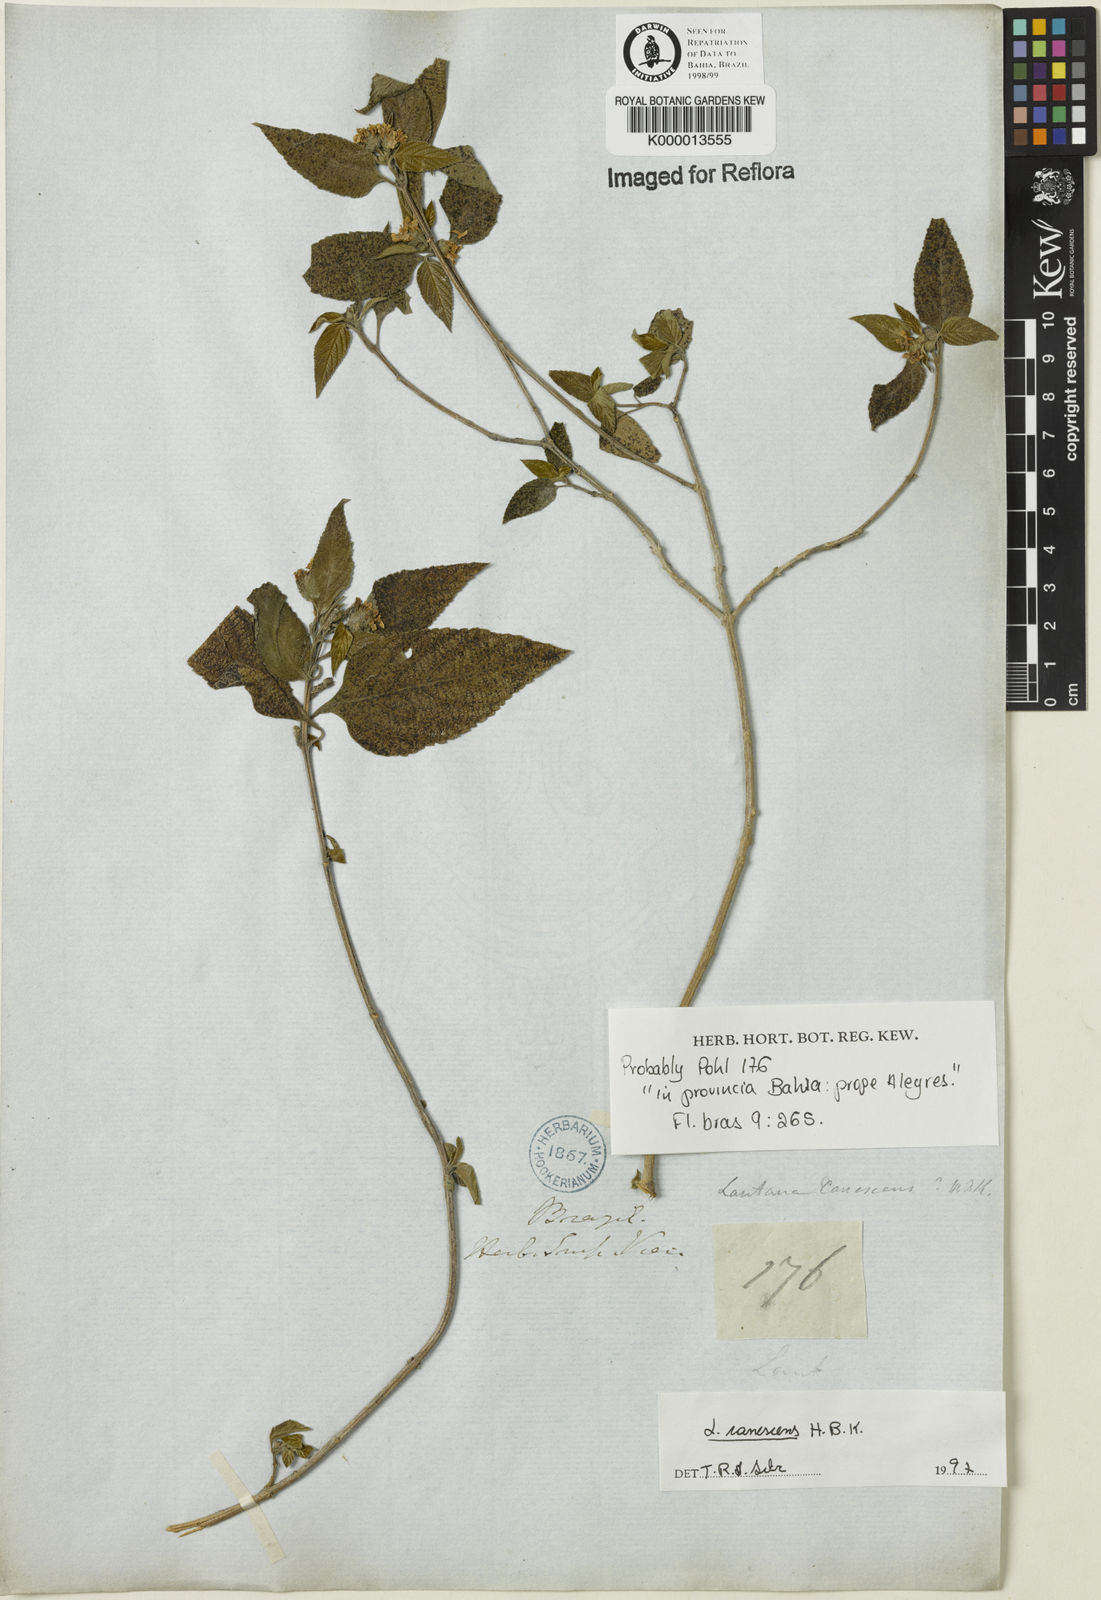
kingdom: Plantae
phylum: Tracheophyta
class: Magnoliopsida
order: Lamiales
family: Verbenaceae
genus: Lantana
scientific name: Lantana canescens
